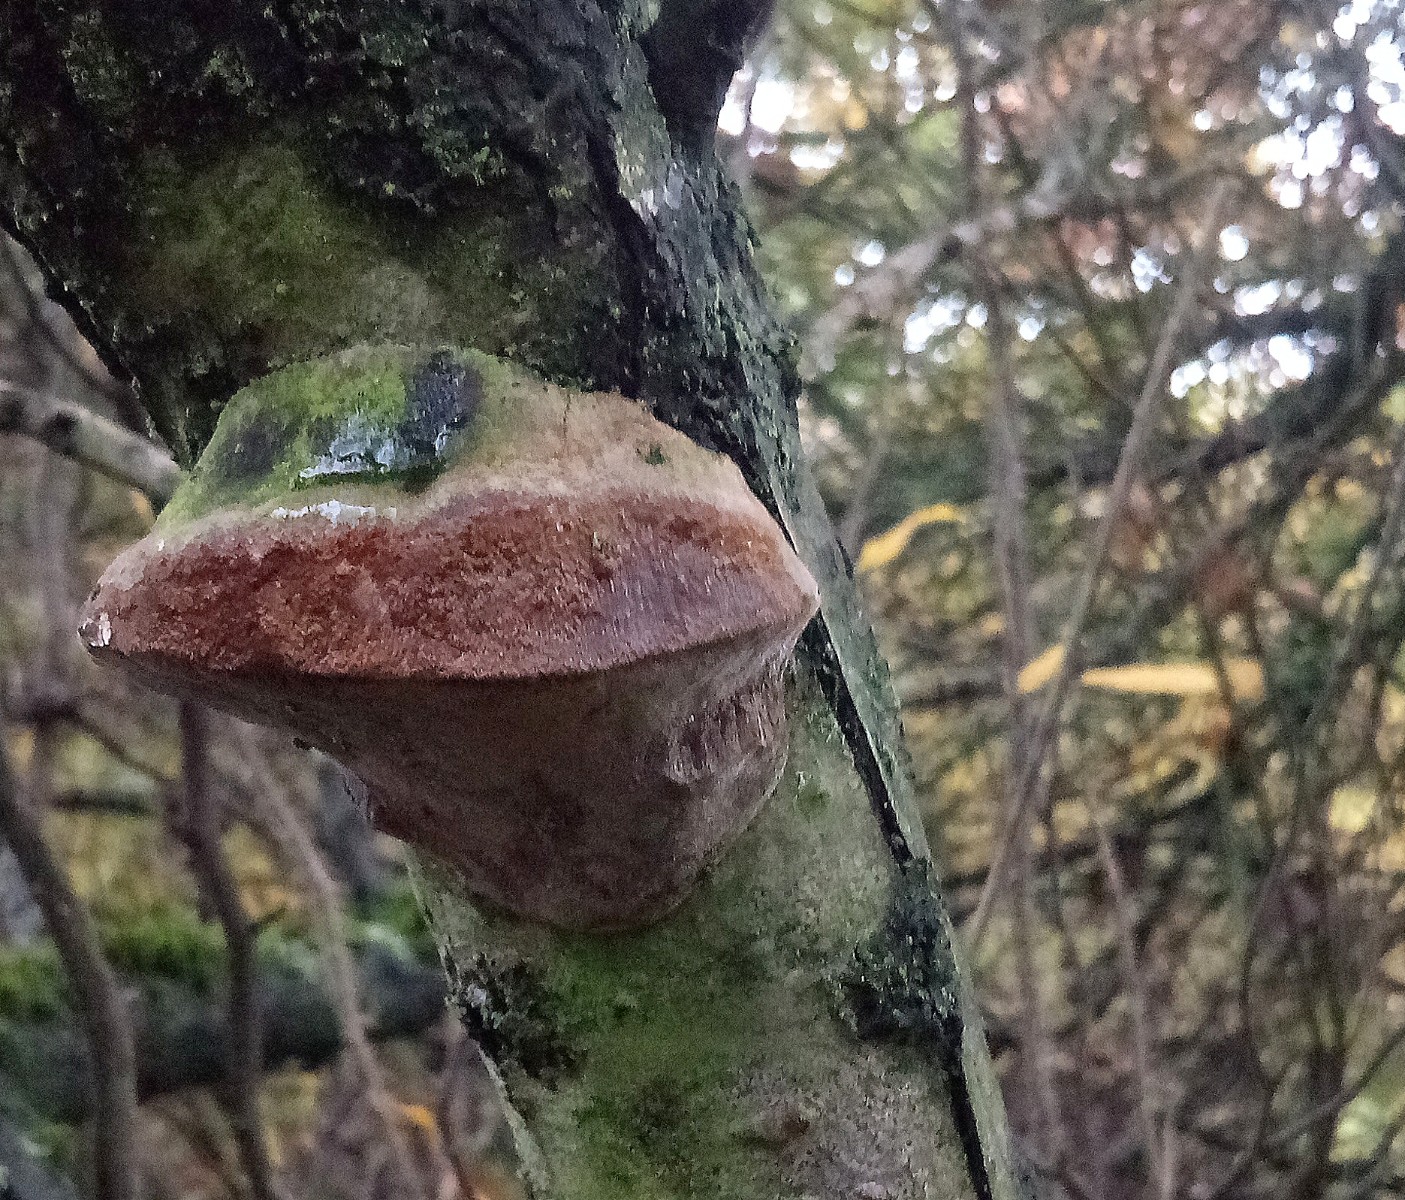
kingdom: Fungi
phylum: Basidiomycota
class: Agaricomycetes
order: Hymenochaetales
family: Hymenochaetaceae
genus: Fomitiporia
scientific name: Fomitiporia hippophaeicola
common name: havtorn-ildporesvamp
